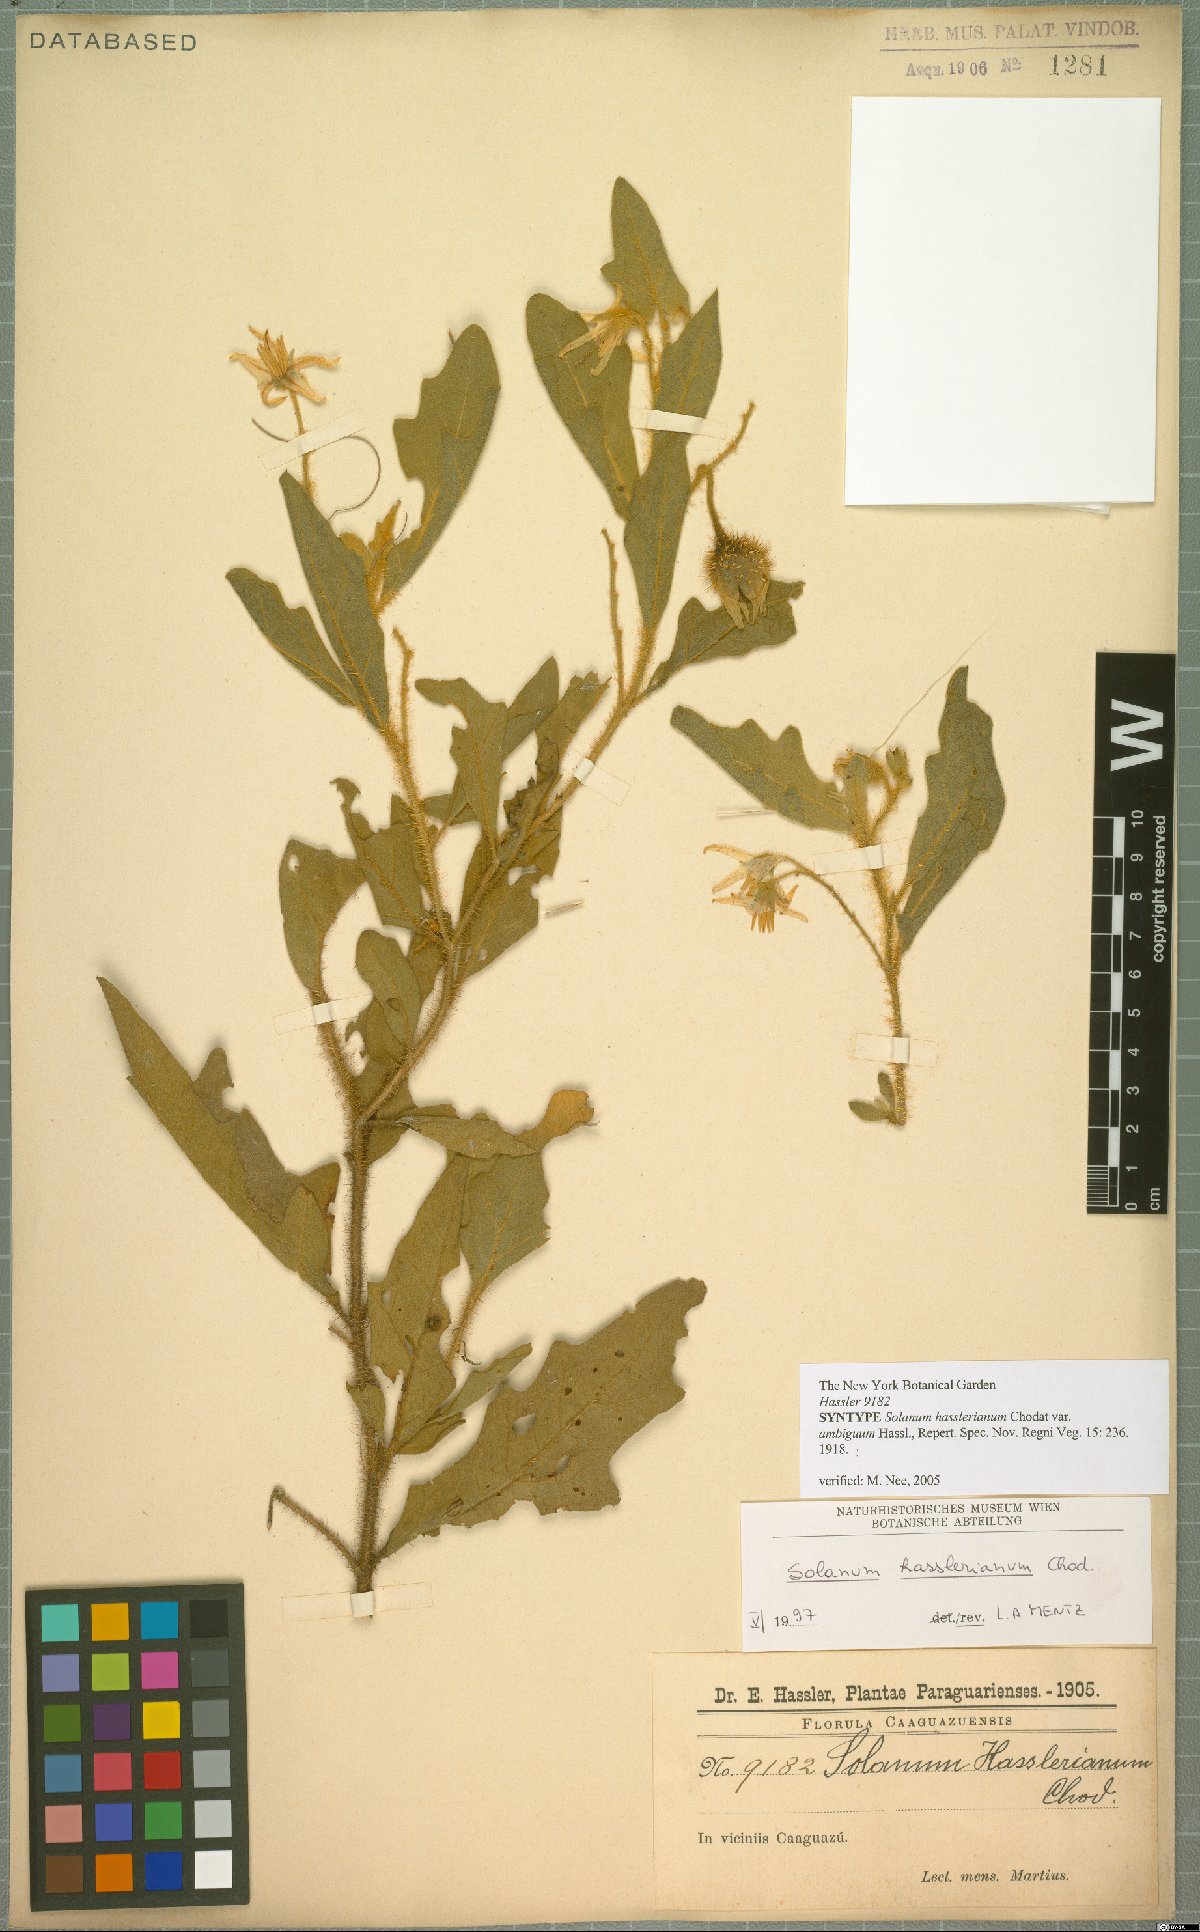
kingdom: Plantae
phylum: Tracheophyta
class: Magnoliopsida
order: Solanales
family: Solanaceae
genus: Solanum
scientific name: Solanum hasslerianum
